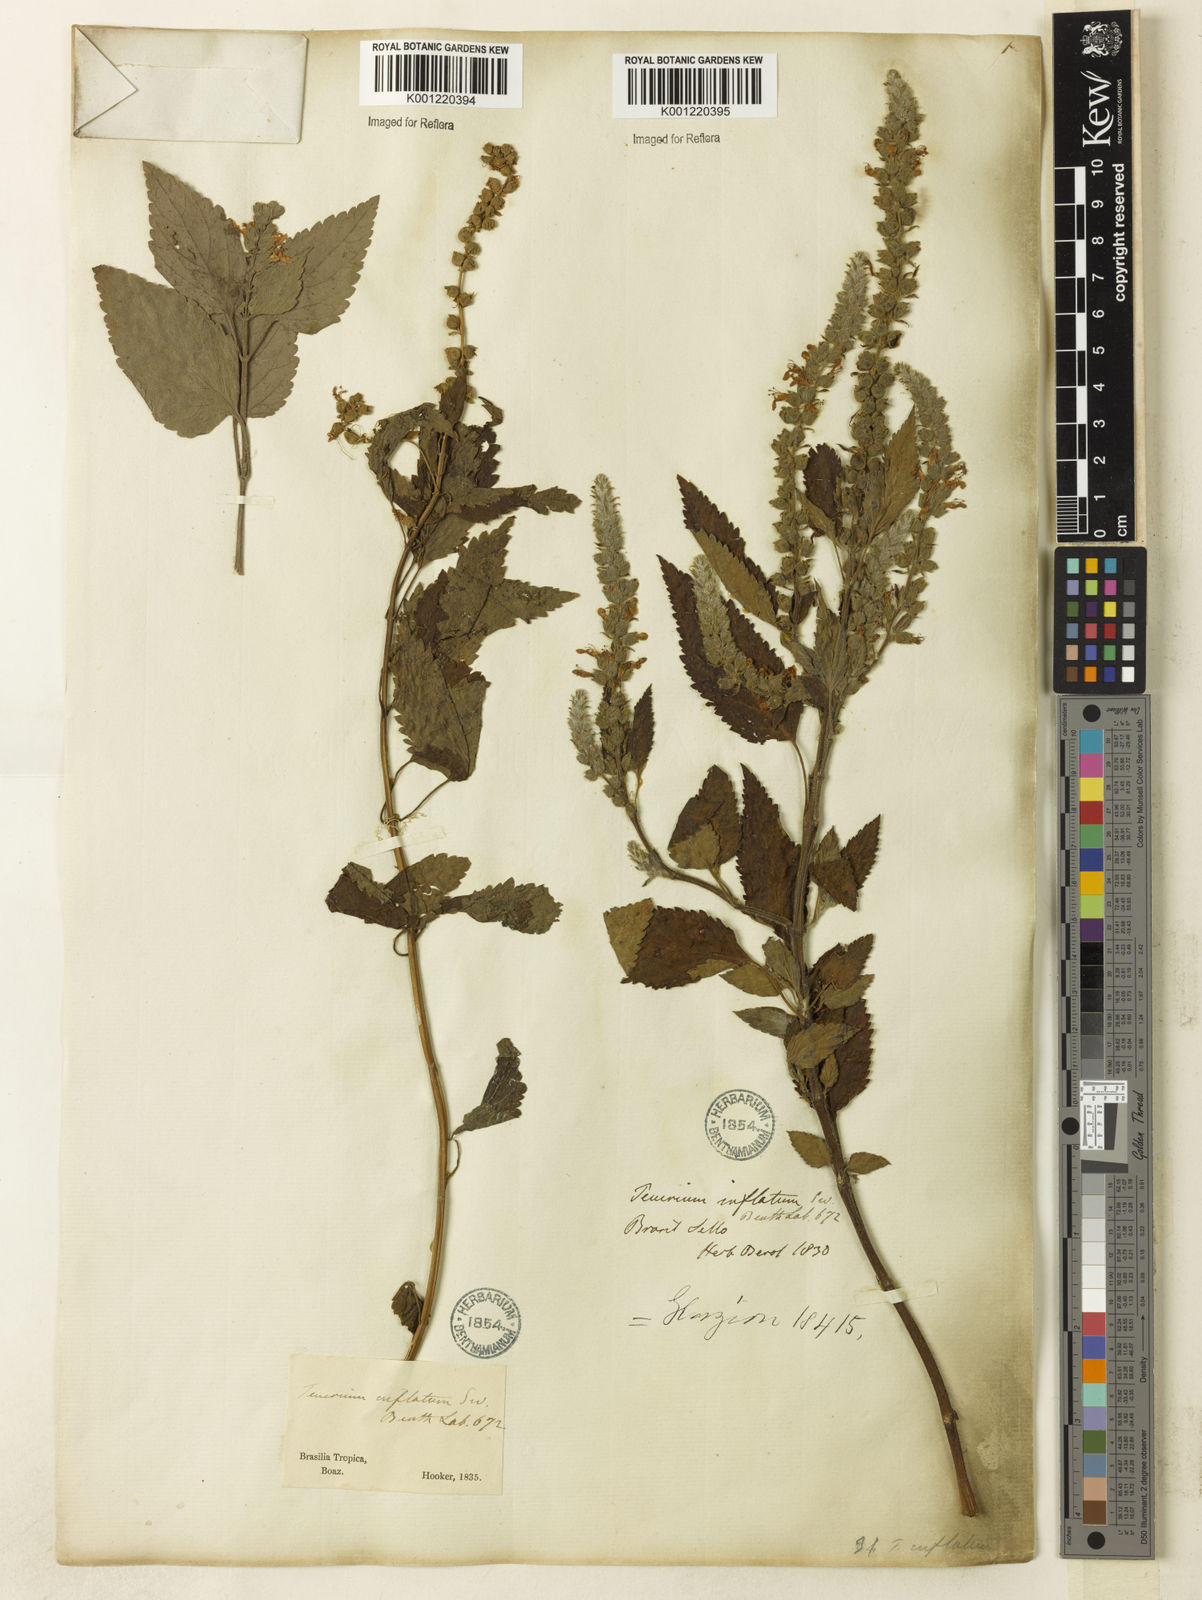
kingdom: Plantae
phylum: Tracheophyta
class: Magnoliopsida
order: Lamiales
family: Lamiaceae
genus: Teucrium
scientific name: Teucrium vesicarium
